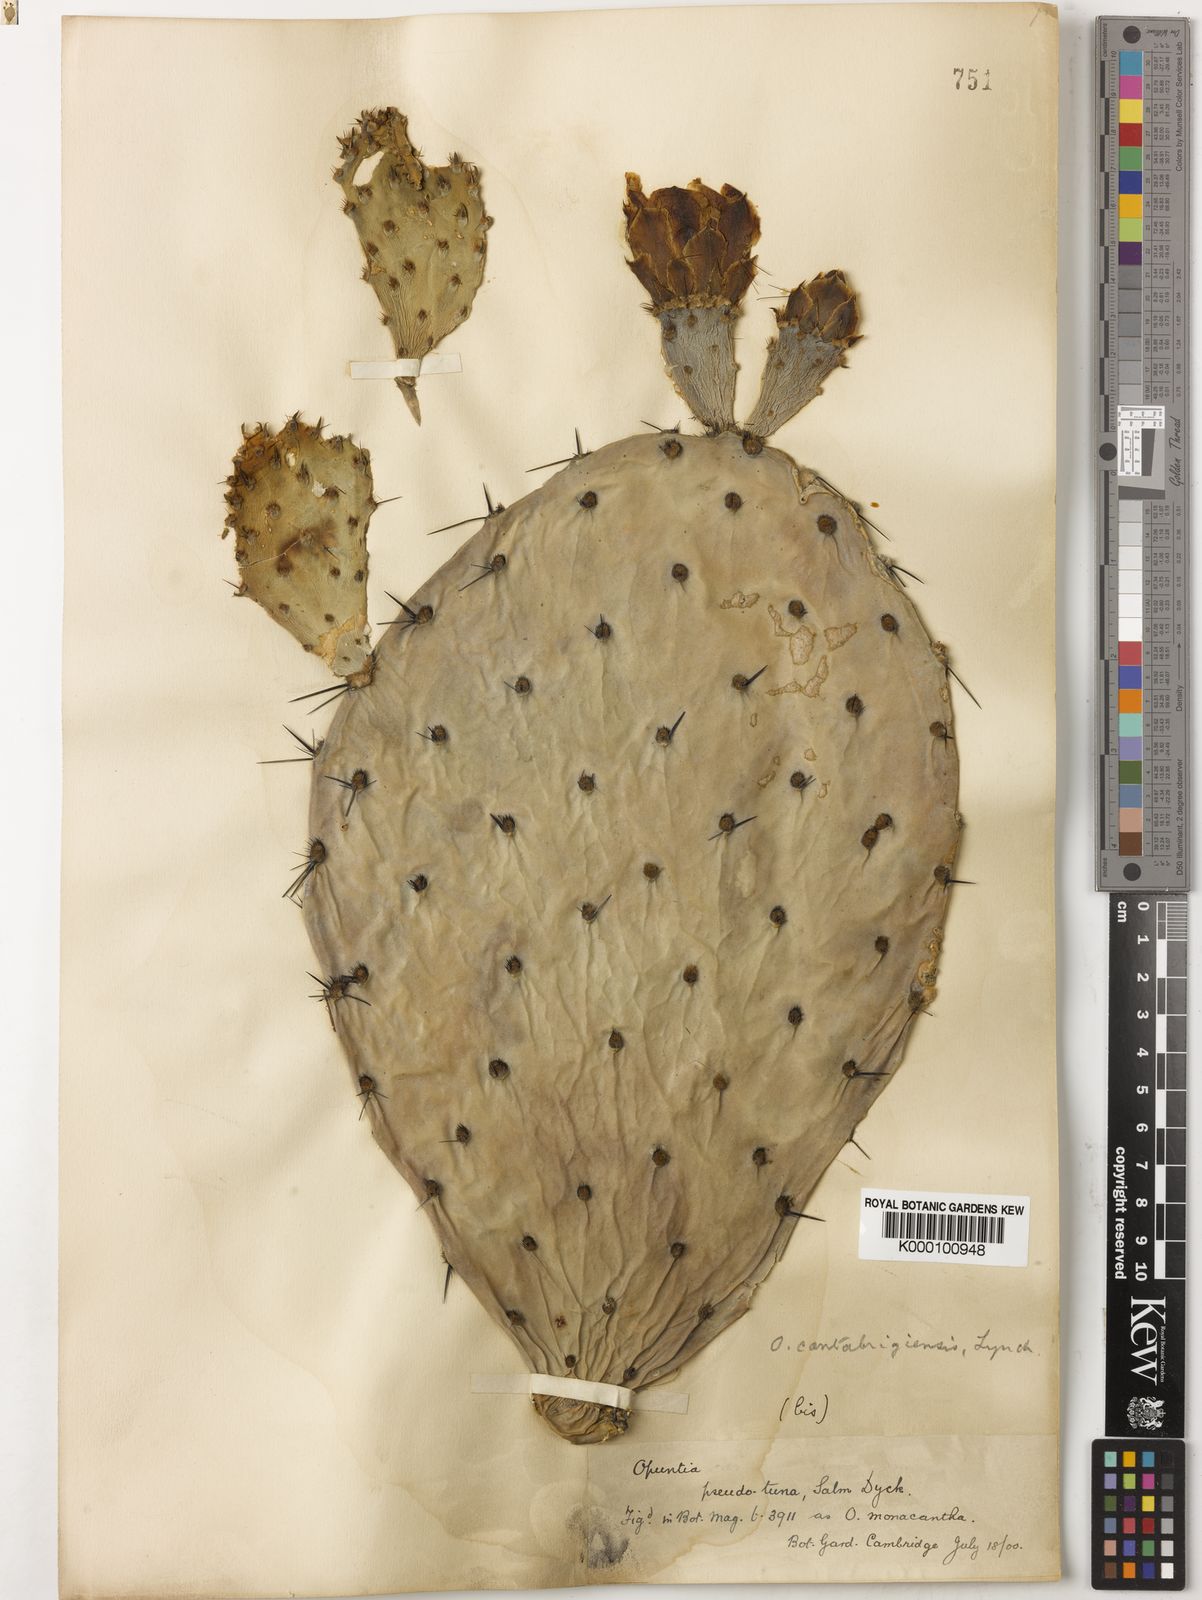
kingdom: Plantae
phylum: Tracheophyta
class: Magnoliopsida
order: Caryophyllales
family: Cactaceae
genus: Opuntia
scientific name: Opuntia engelmannii
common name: Cactus-apple
